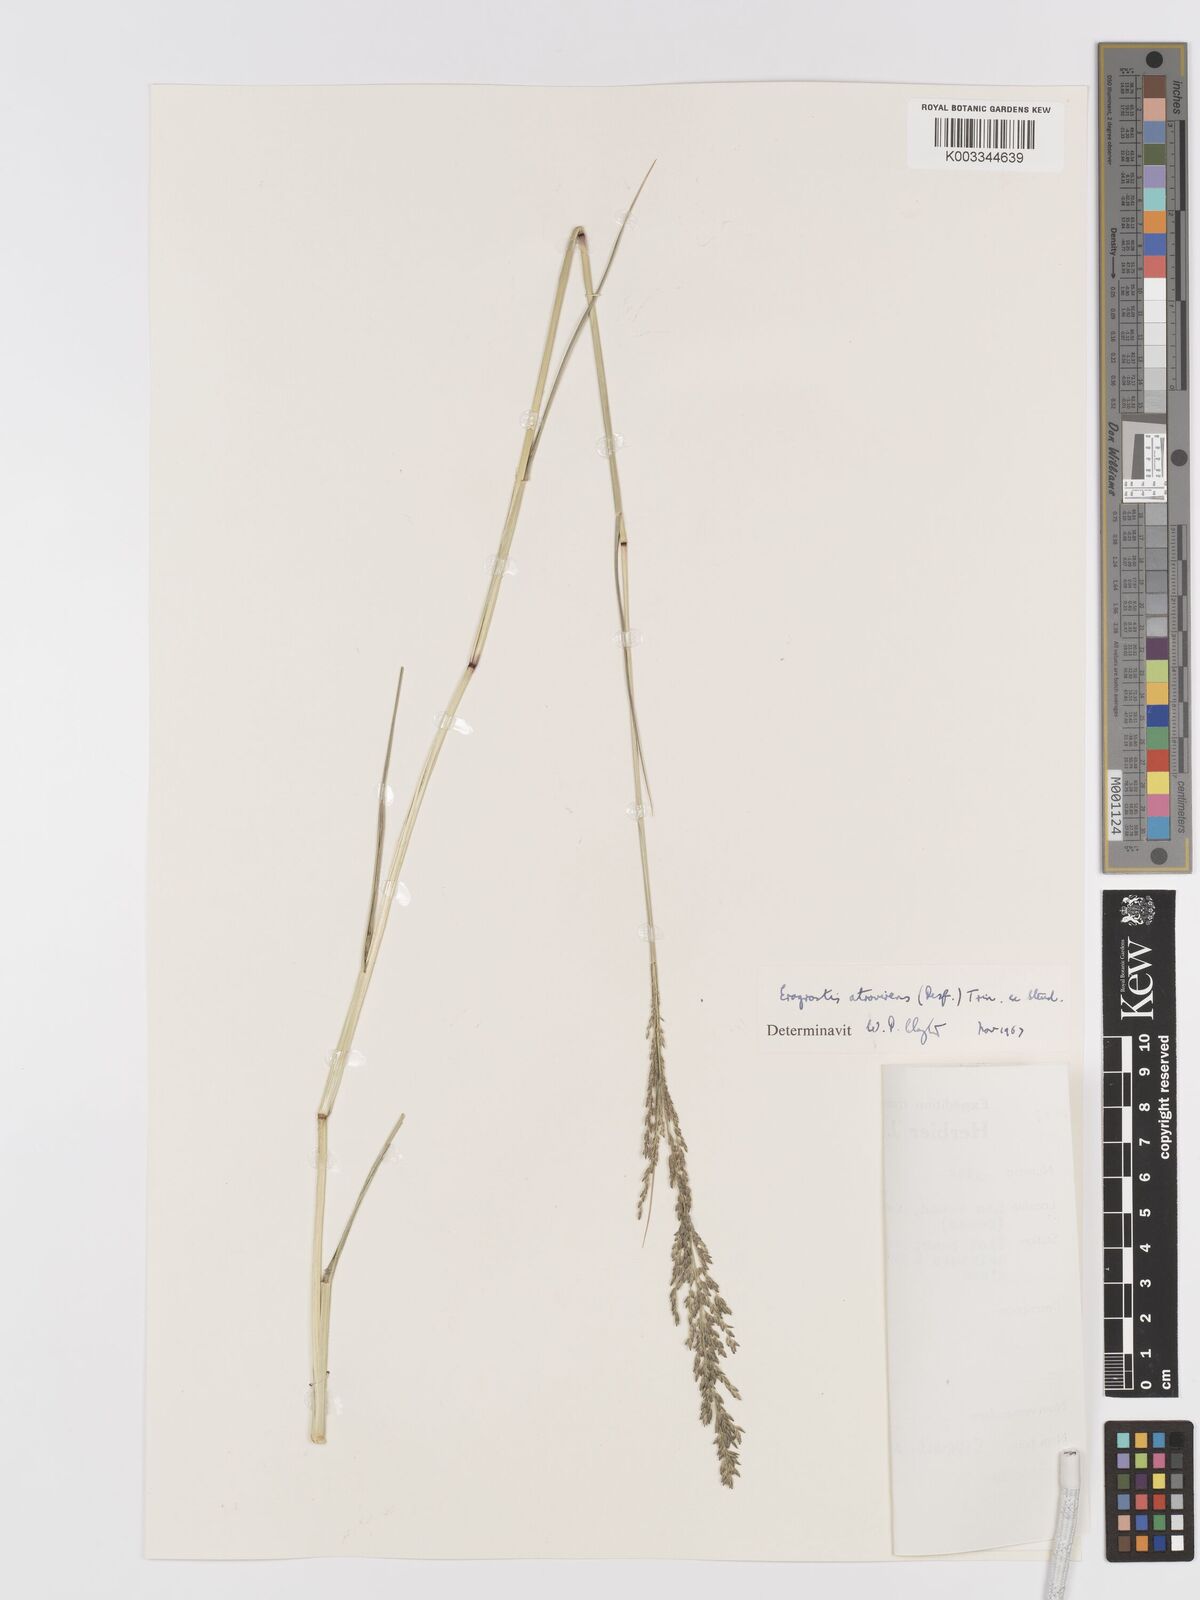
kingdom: Plantae
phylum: Tracheophyta
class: Liliopsida
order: Poales
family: Poaceae
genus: Eragrostis
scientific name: Eragrostis
